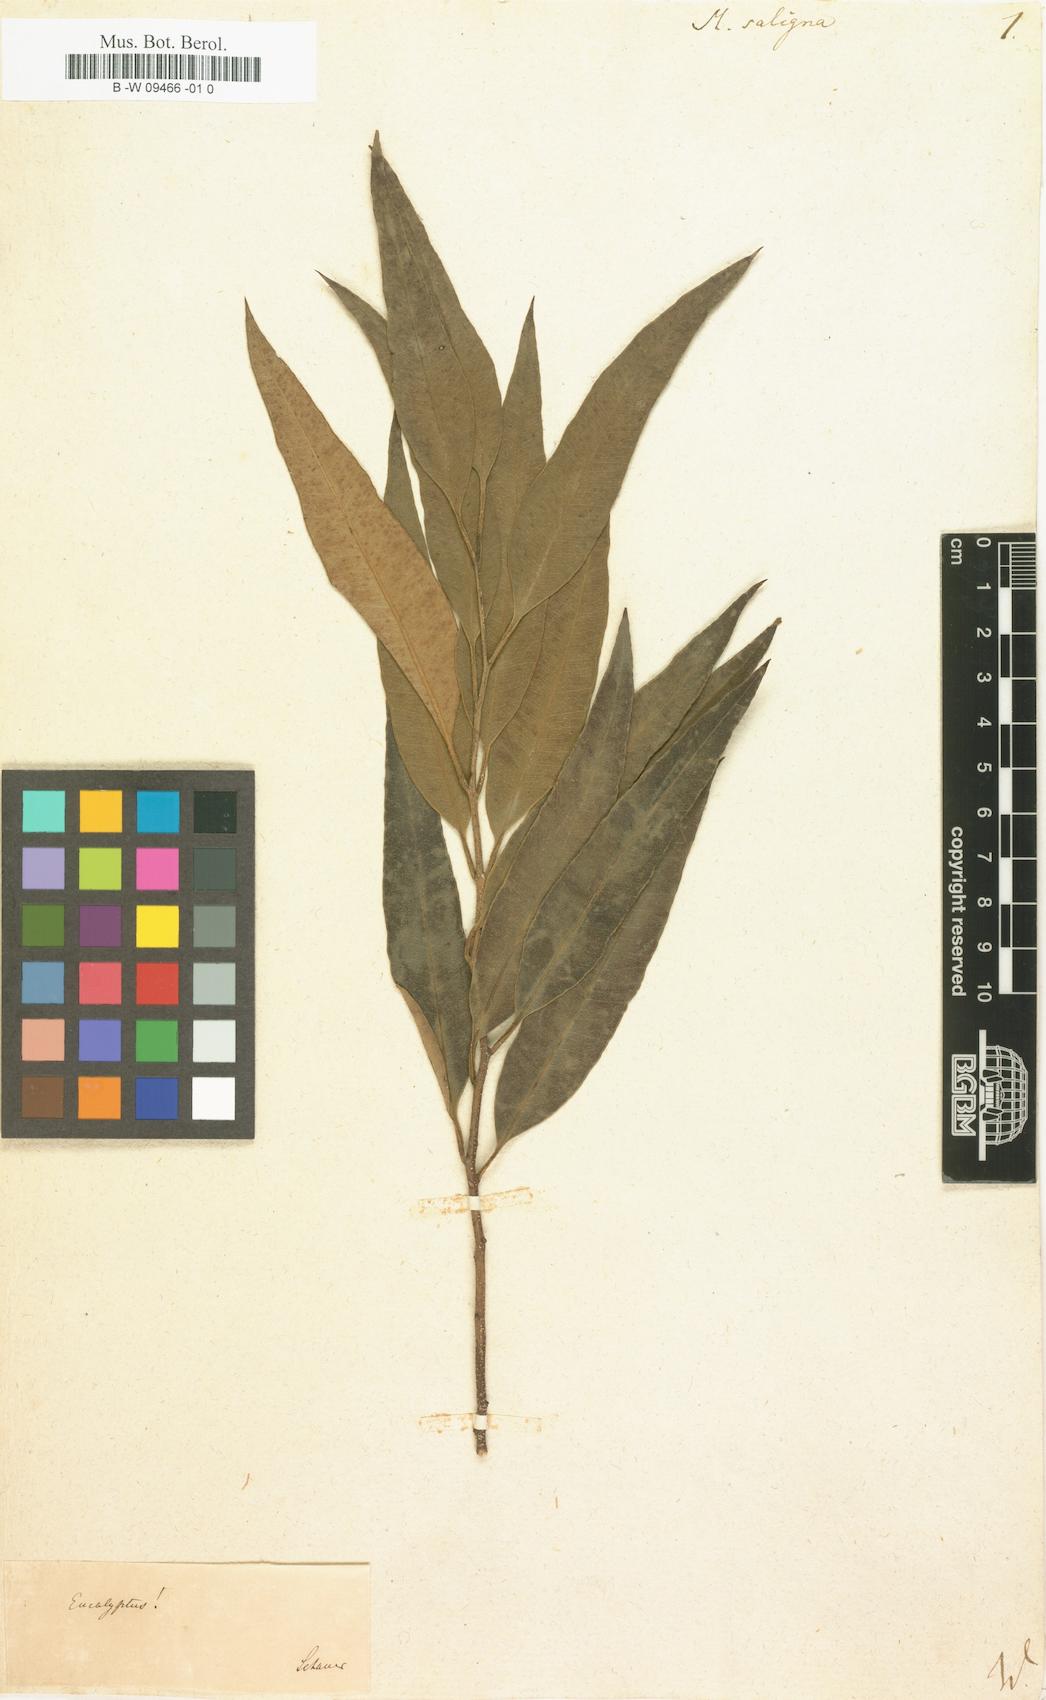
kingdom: Plantae
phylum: Tracheophyta
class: Magnoliopsida
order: Myrtales
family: Myrtaceae
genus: Callistemon
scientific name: Callistemon salignus
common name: White bottlebrush
